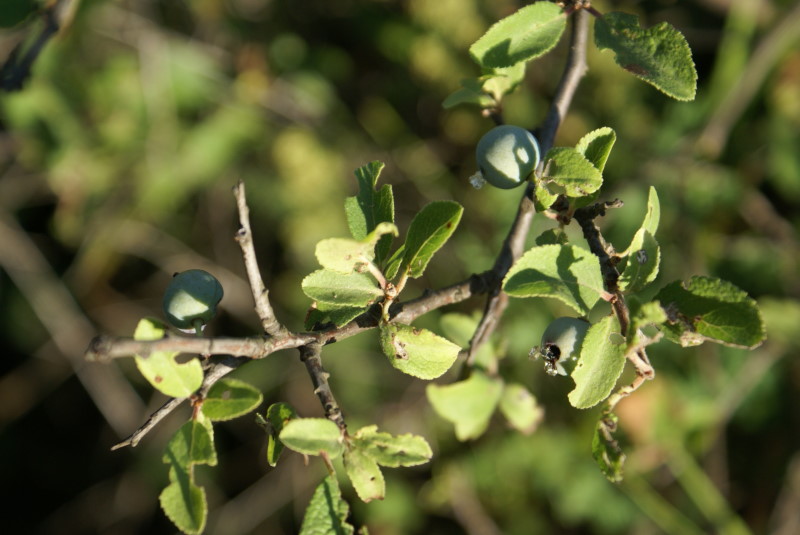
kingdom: Plantae
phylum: Tracheophyta
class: Magnoliopsida
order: Rosales
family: Rosaceae
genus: Prunus
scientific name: Prunus spinosa
